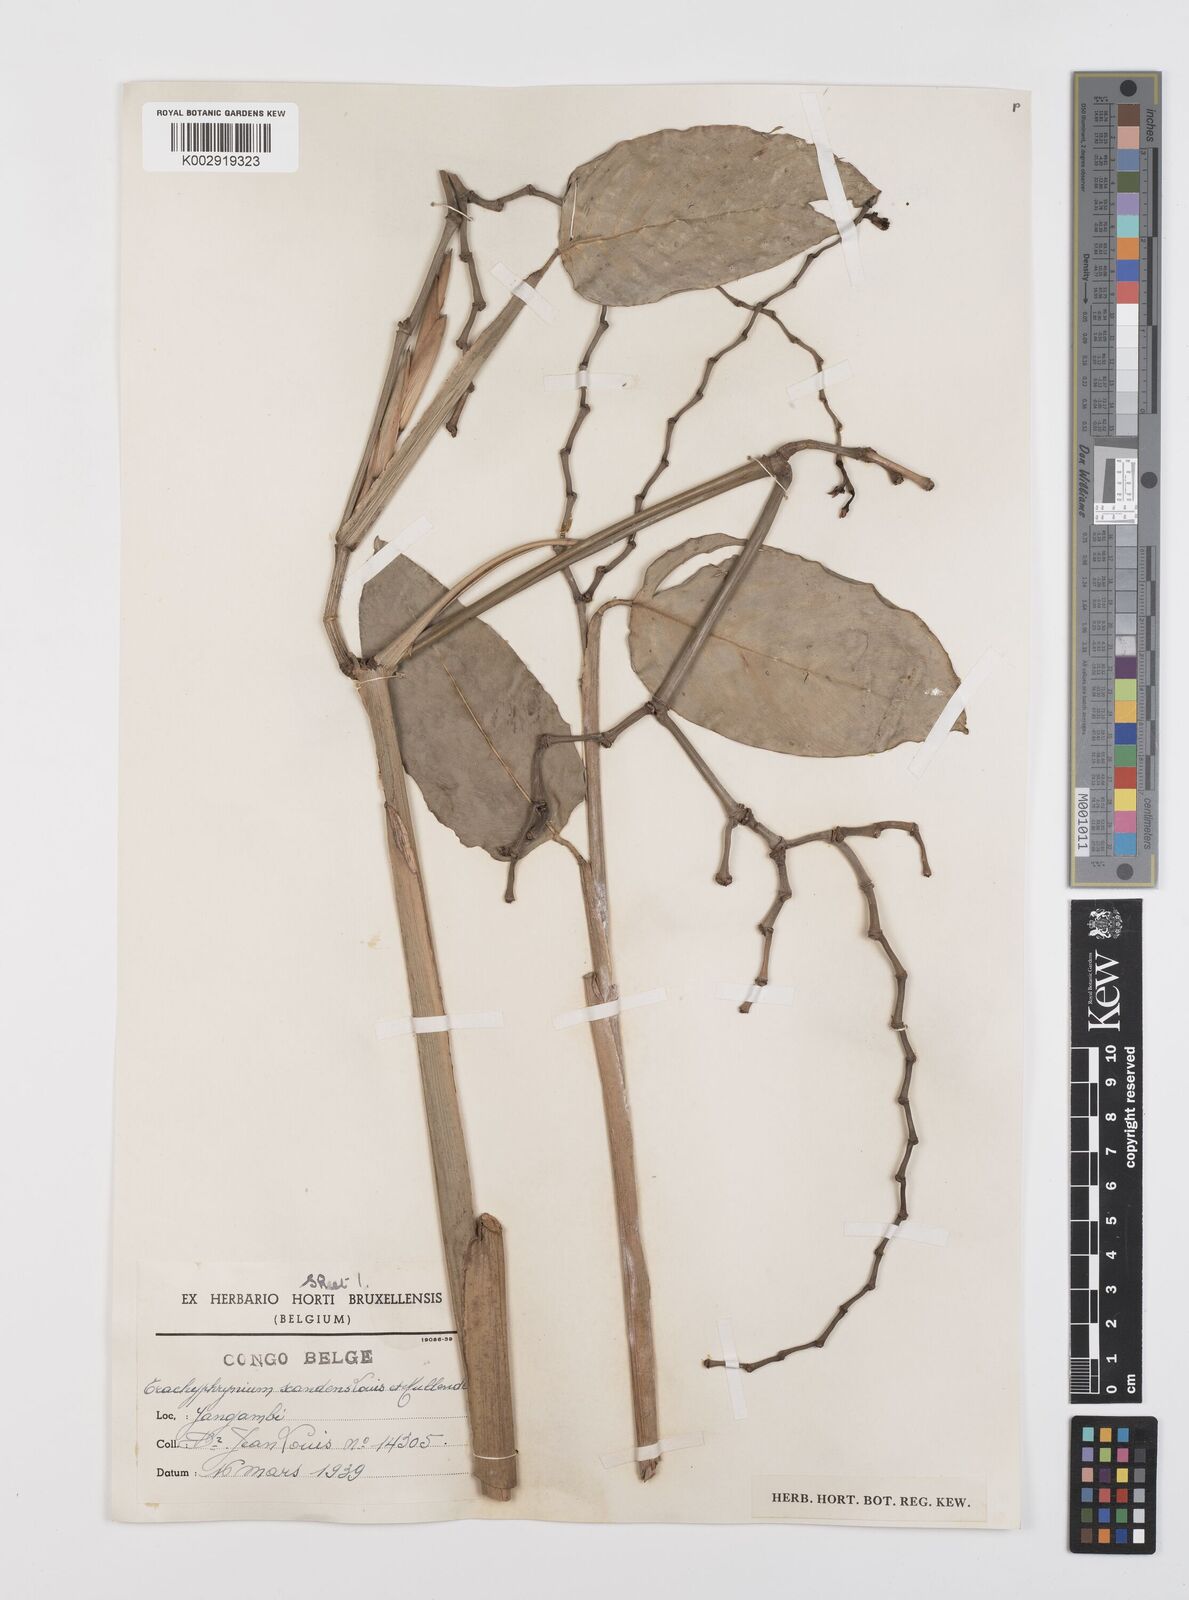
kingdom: Plantae
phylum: Tracheophyta
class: Liliopsida
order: Zingiberales
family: Marantaceae
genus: Hypselodelphys
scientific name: Hypselodelphys scandens
